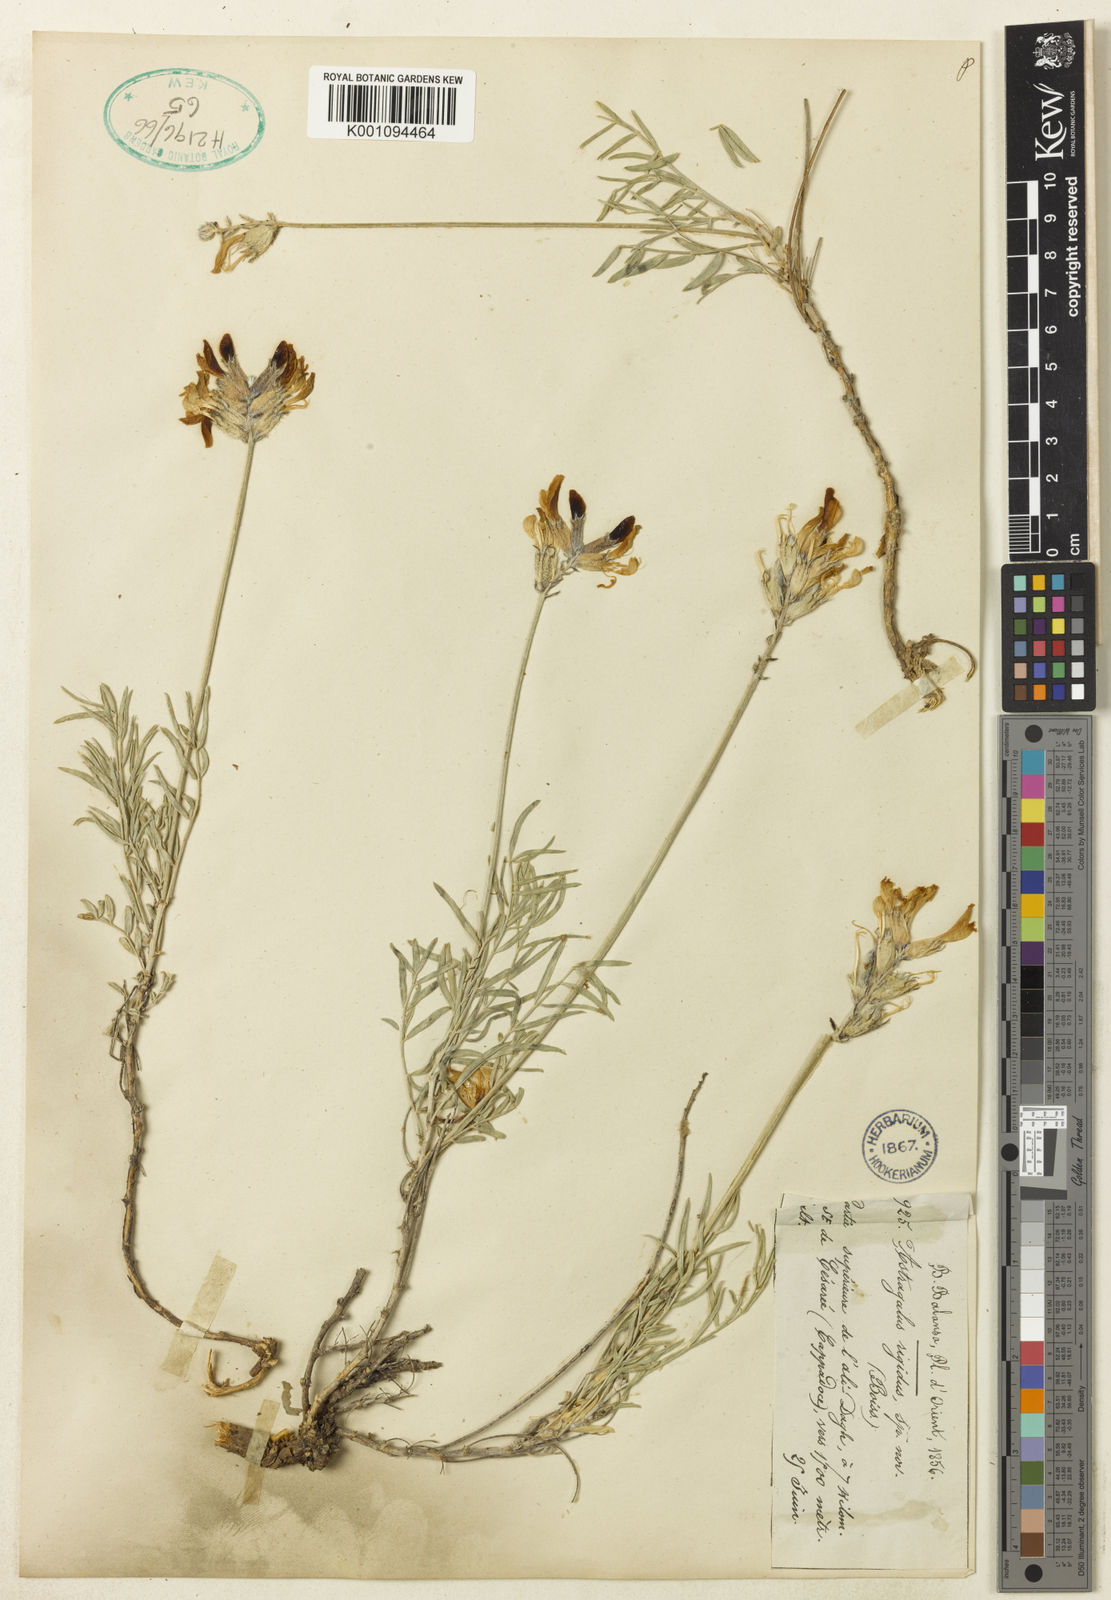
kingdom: Plantae
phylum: Tracheophyta
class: Magnoliopsida
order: Fabales
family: Fabaceae
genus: Astragalus
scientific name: Astragalus melanocalyx
